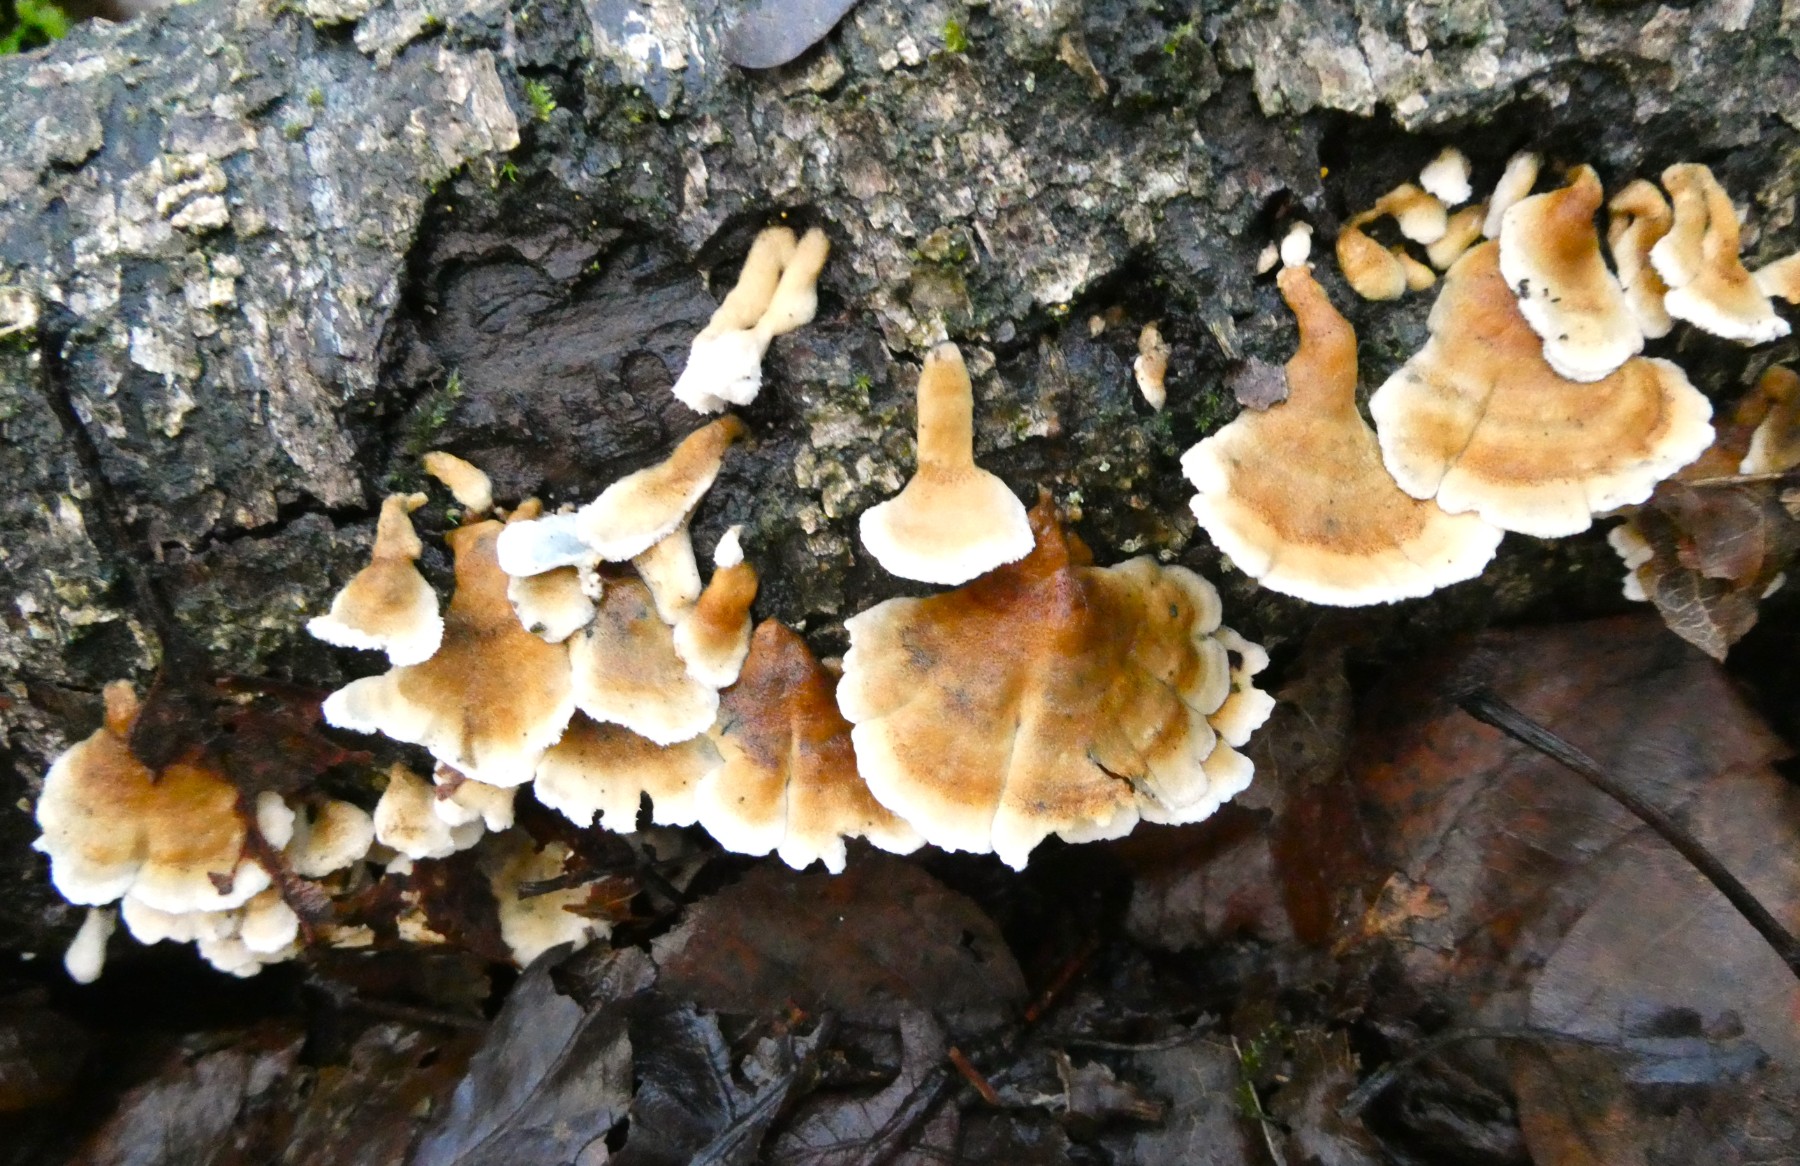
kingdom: Fungi
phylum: Basidiomycota
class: Agaricomycetes
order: Amylocorticiales
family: Amylocorticiaceae
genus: Plicaturopsis
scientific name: Plicaturopsis crispa
